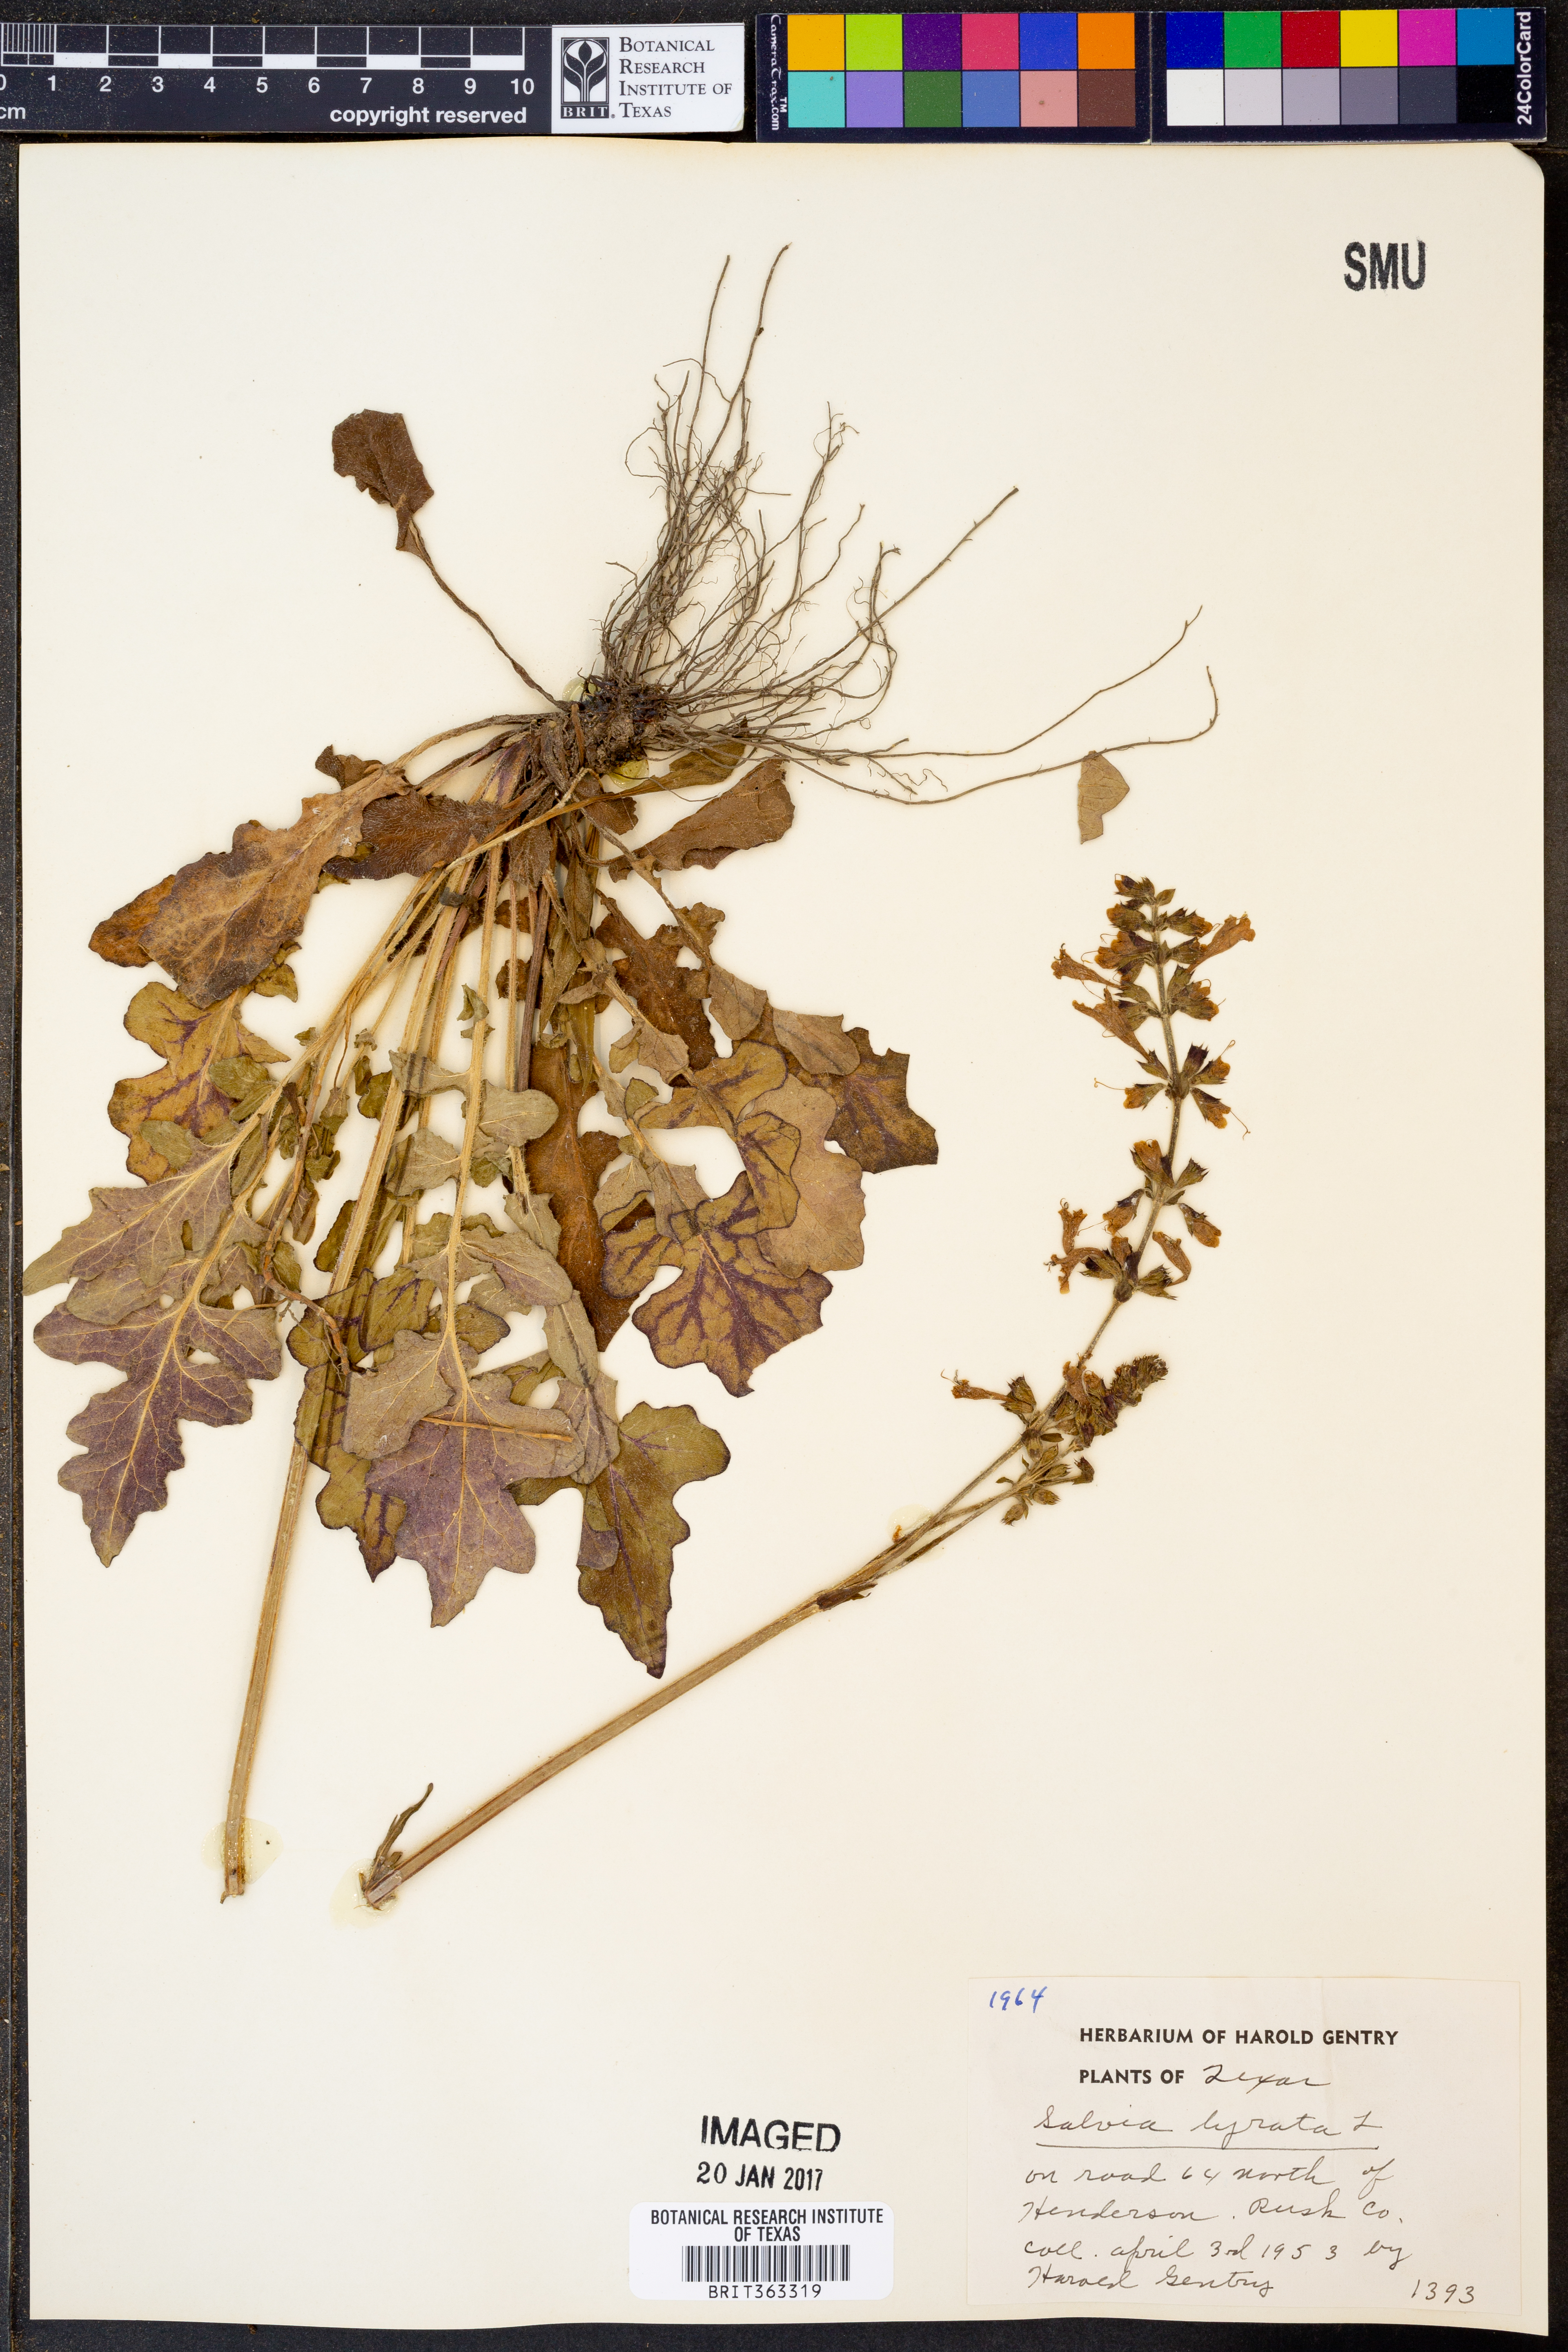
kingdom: Plantae
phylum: Tracheophyta
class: Magnoliopsida
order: Lamiales
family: Lamiaceae
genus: Salvia
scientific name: Salvia lyrata
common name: Cancerweed
